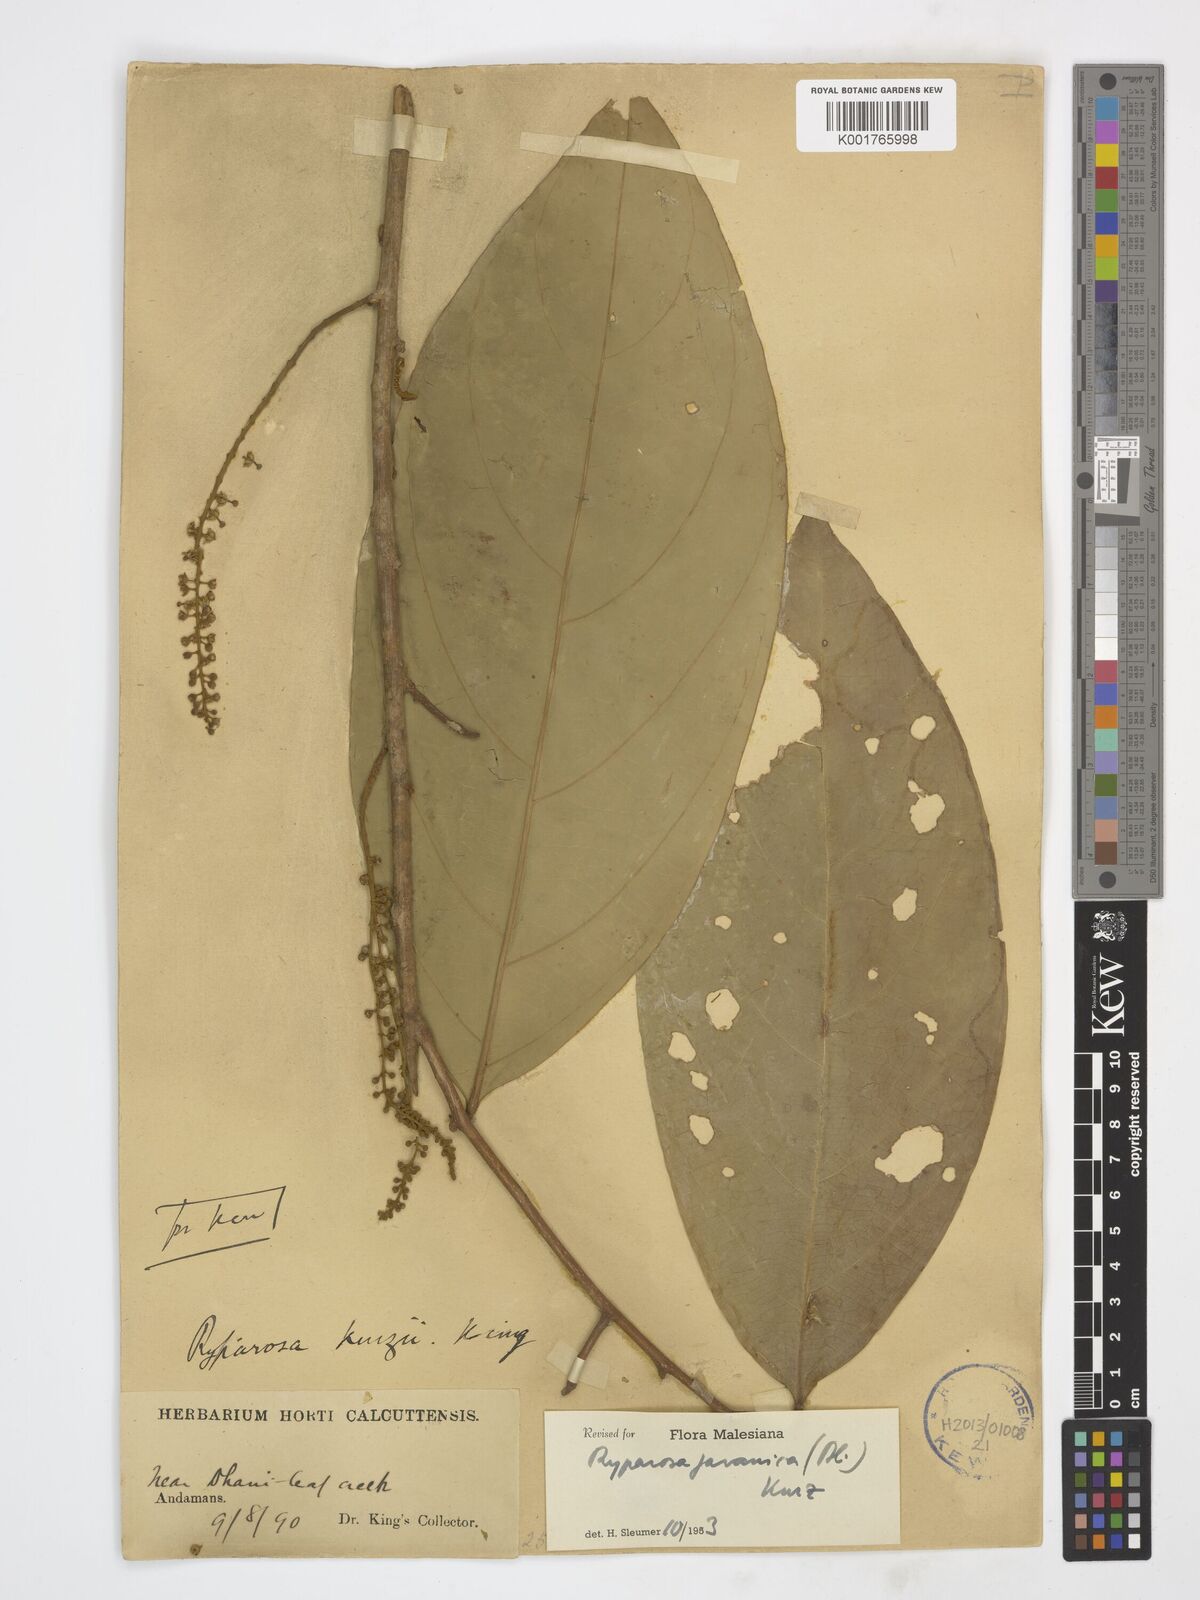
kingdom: Plantae
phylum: Tracheophyta
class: Magnoliopsida
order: Malpighiales
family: Achariaceae
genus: Ryparosa
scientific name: Ryparosa javanica
